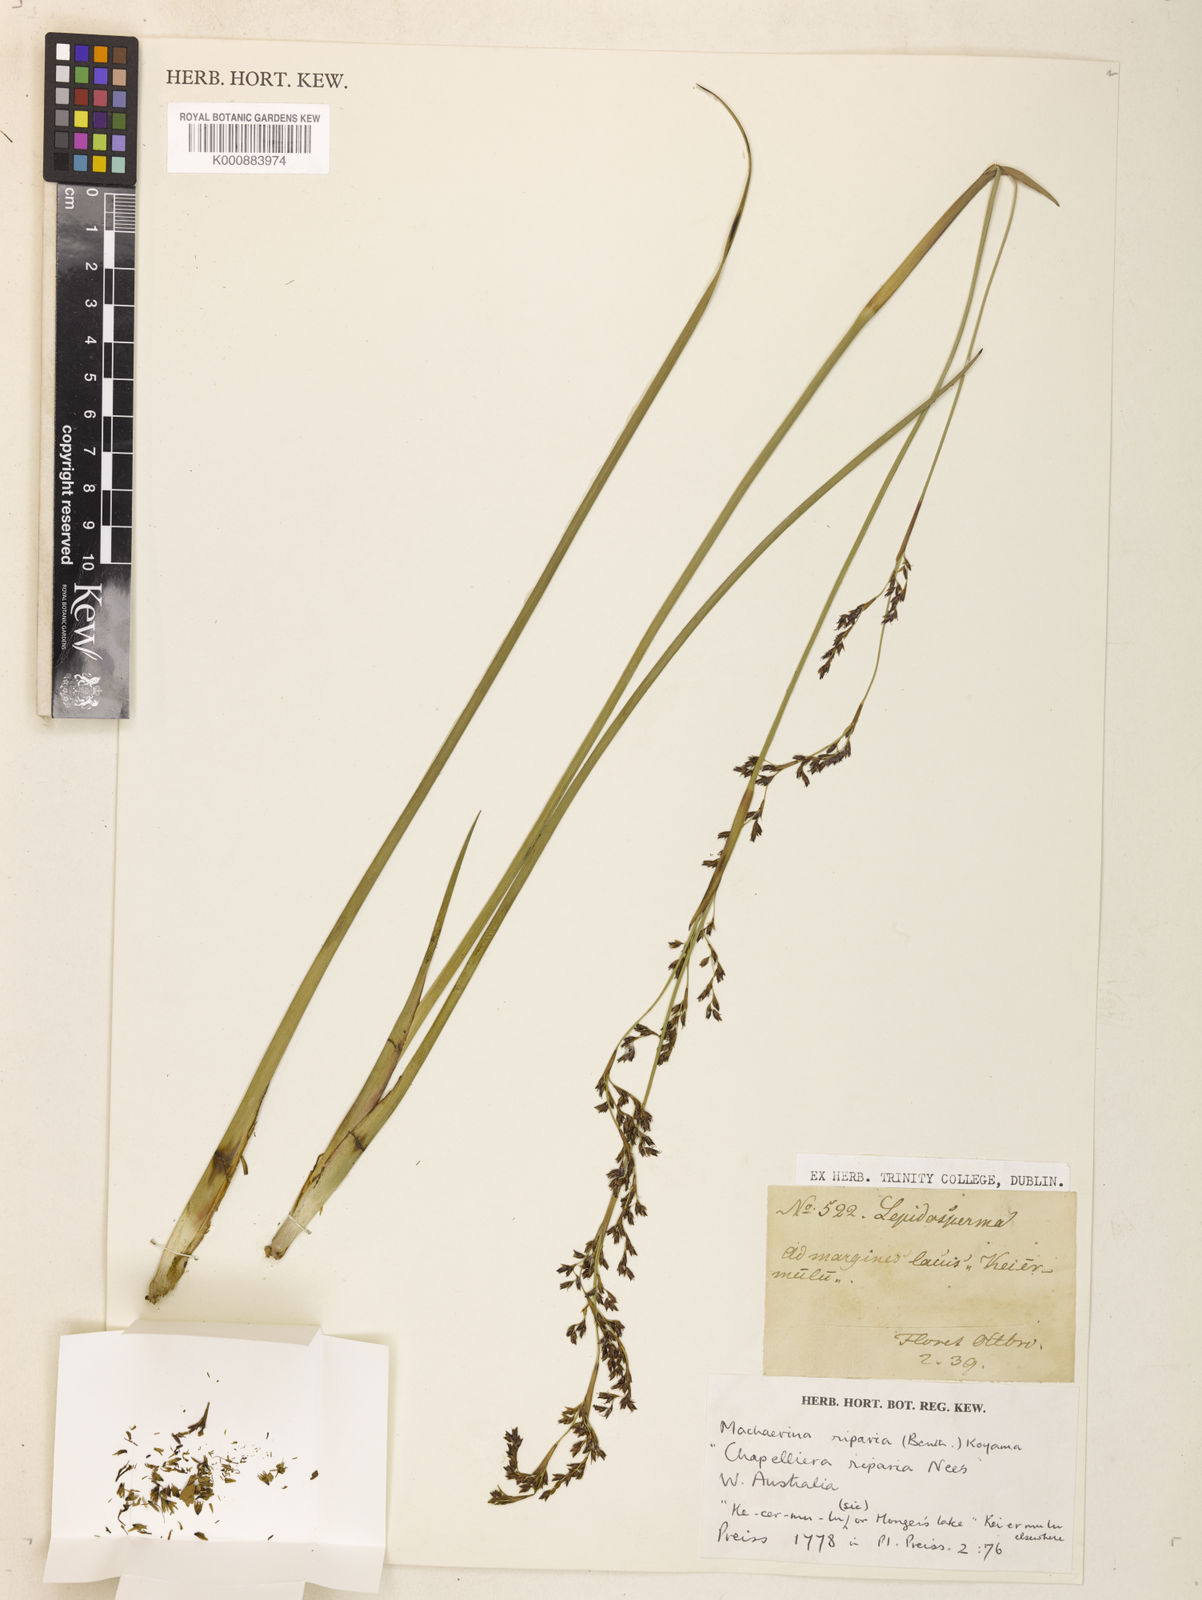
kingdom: Plantae
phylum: Tracheophyta
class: Liliopsida
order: Poales
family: Cyperaceae
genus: Machaerina
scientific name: Machaerina rubiginosa
